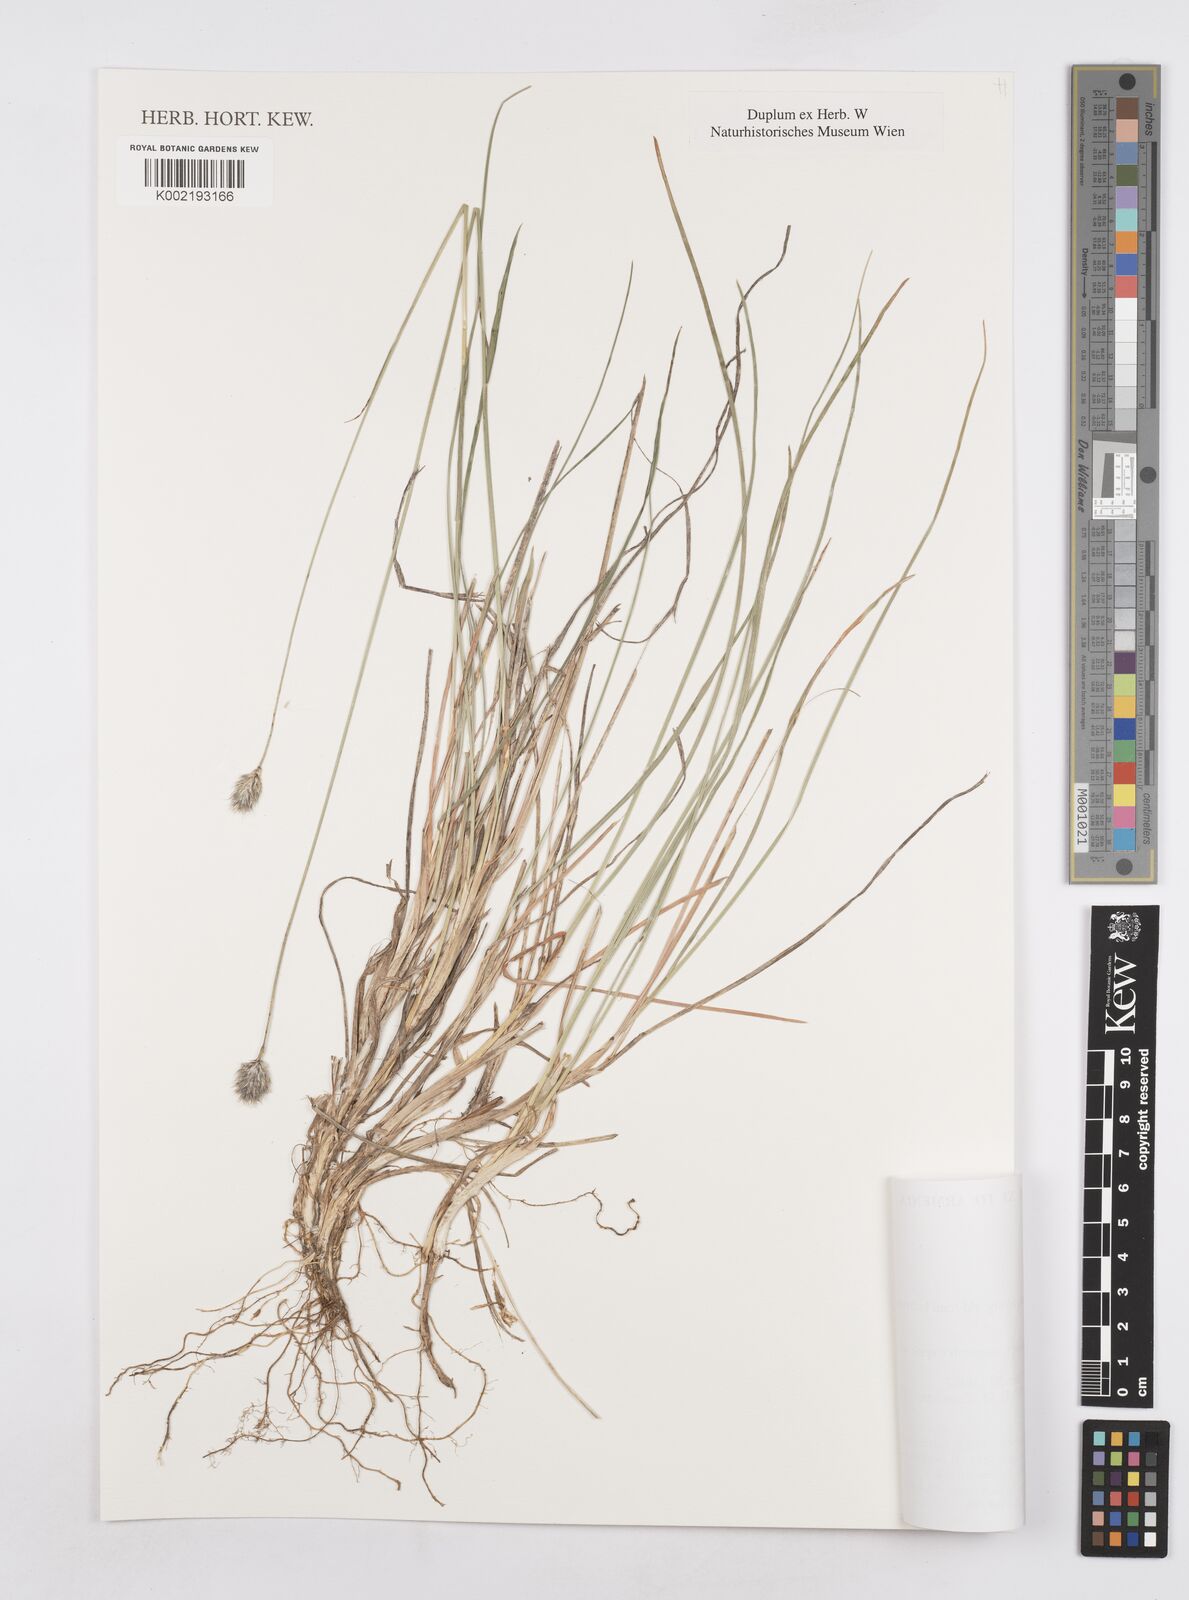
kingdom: Plantae
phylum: Tracheophyta
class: Liliopsida
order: Poales
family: Poaceae
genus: Sesleria
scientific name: Sesleria phleoides
